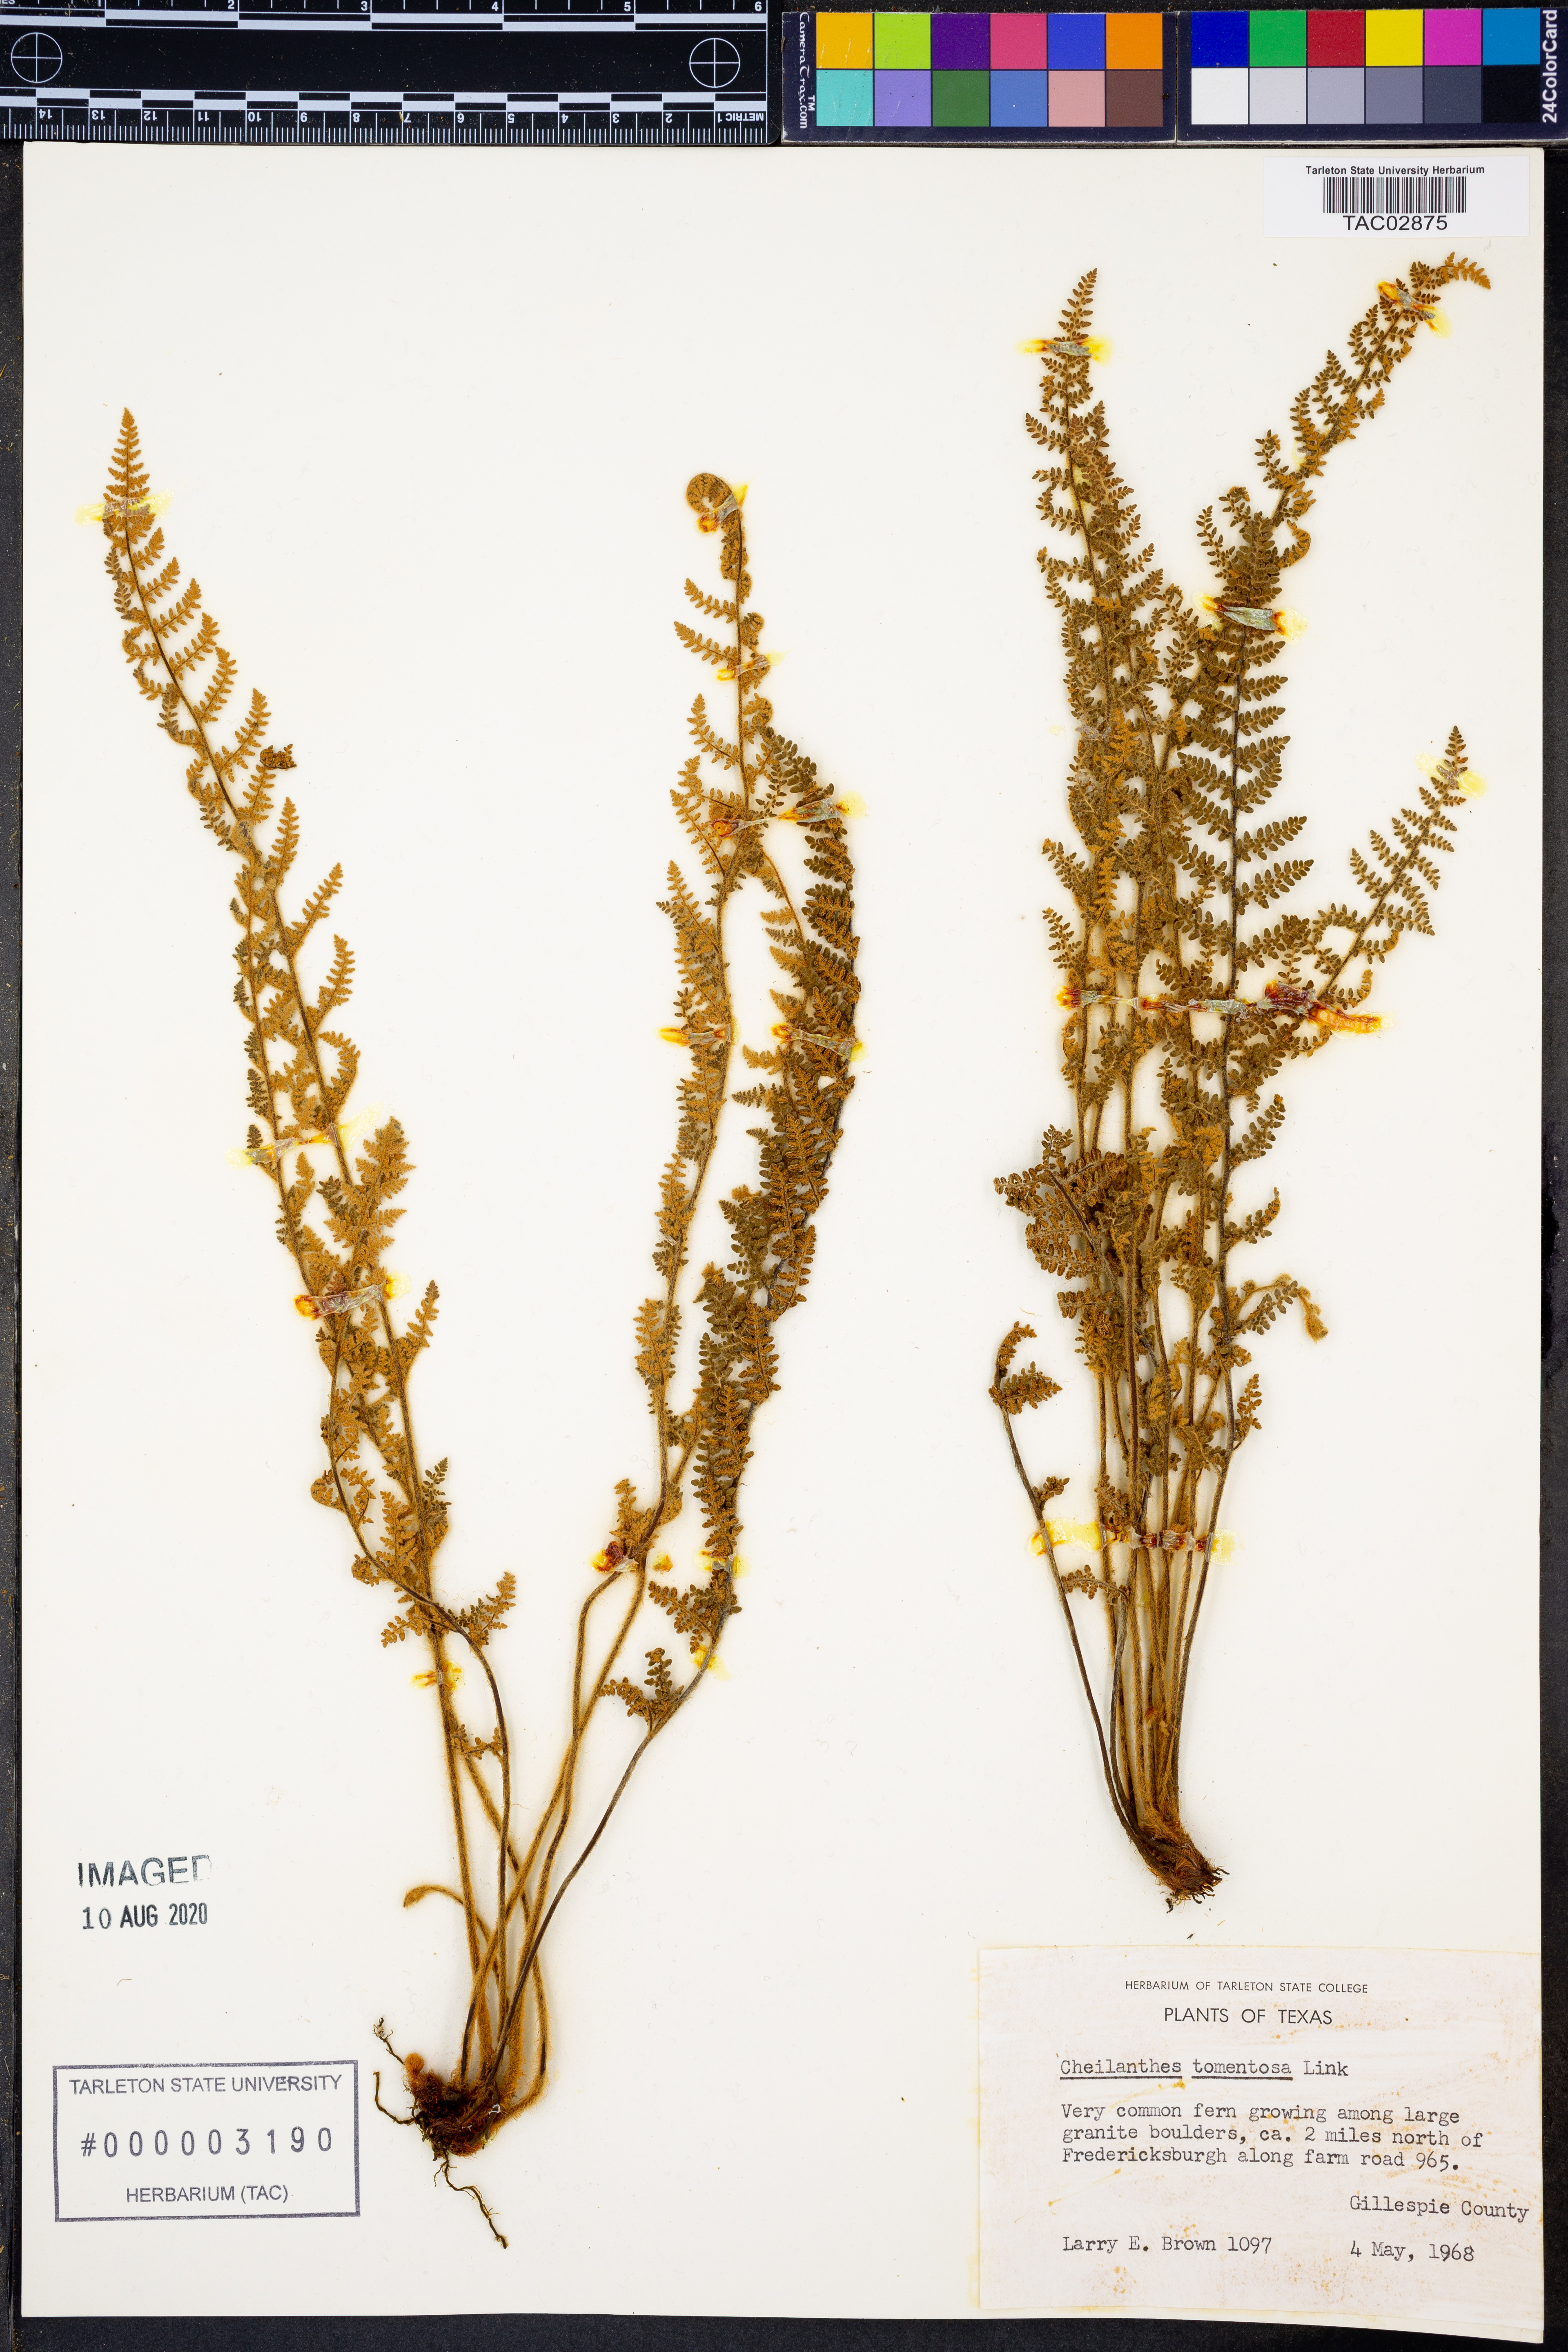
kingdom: Plantae
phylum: Tracheophyta
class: Polypodiopsida
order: Polypodiales
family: Pteridaceae
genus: Myriopteris
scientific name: Myriopteris tomentosa
